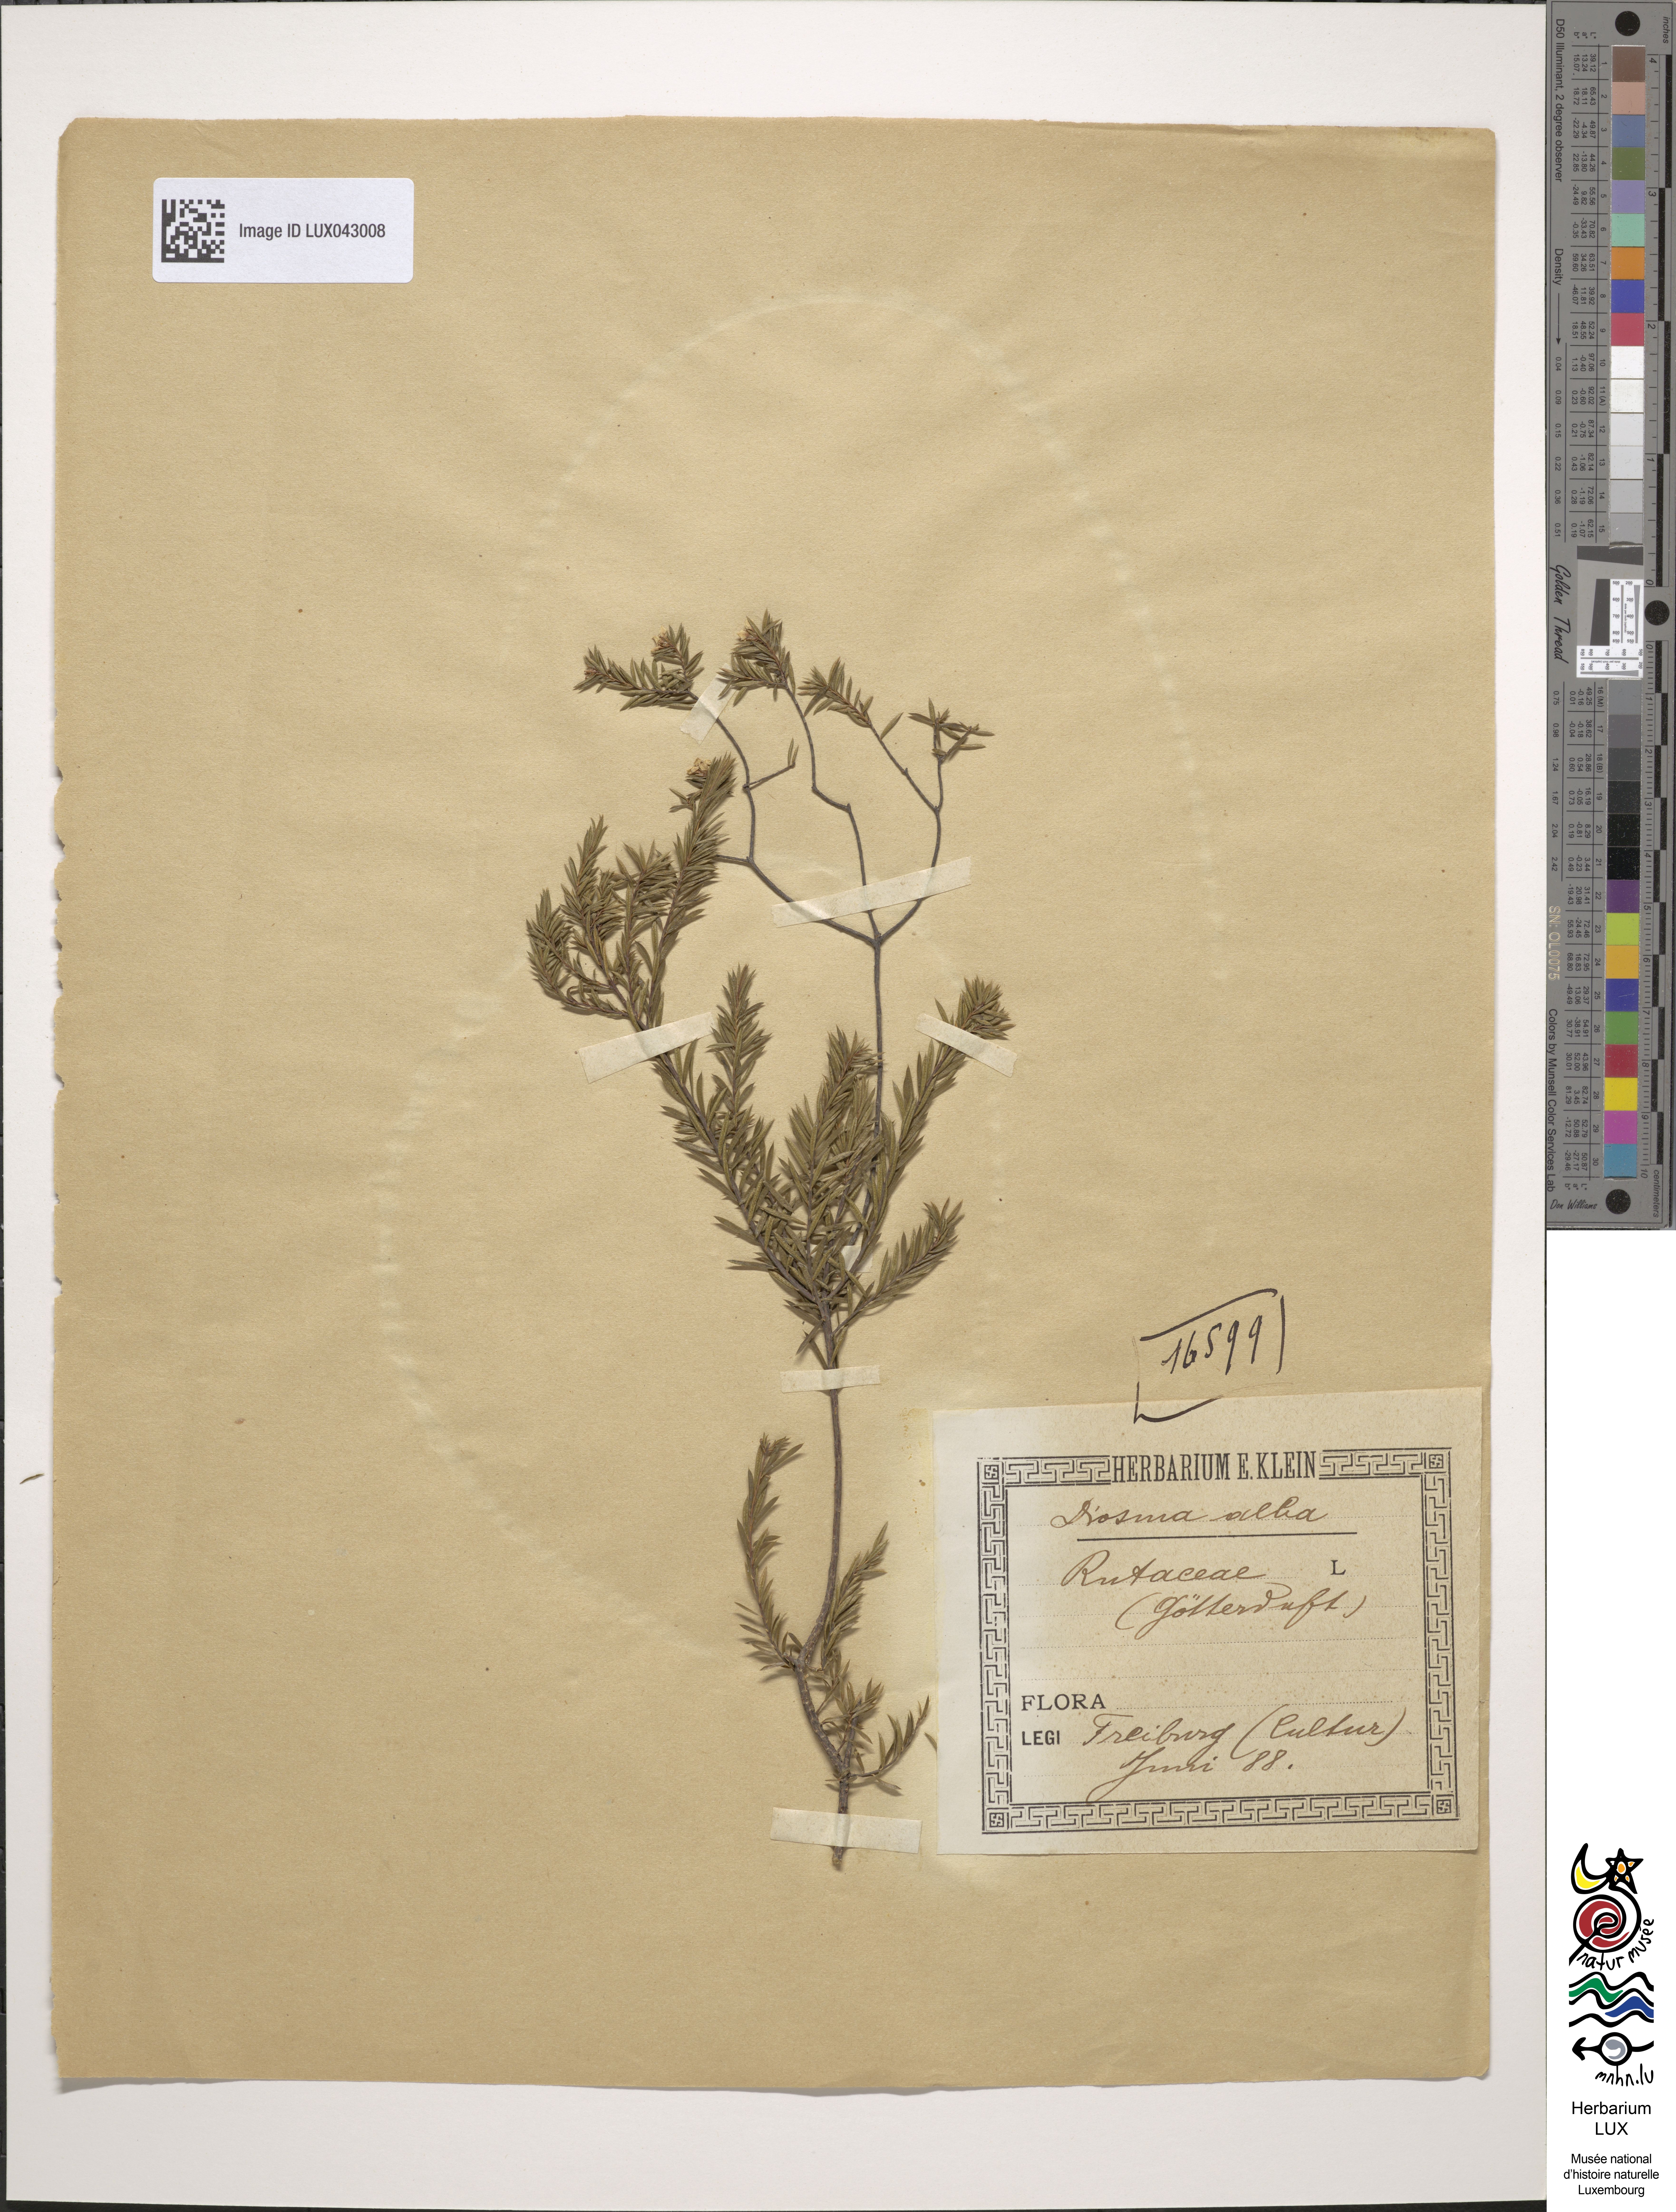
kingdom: Plantae
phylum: Tracheophyta
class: Magnoliopsida
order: Sapindales
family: Rutaceae
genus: Coleonema
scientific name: Coleonema album
